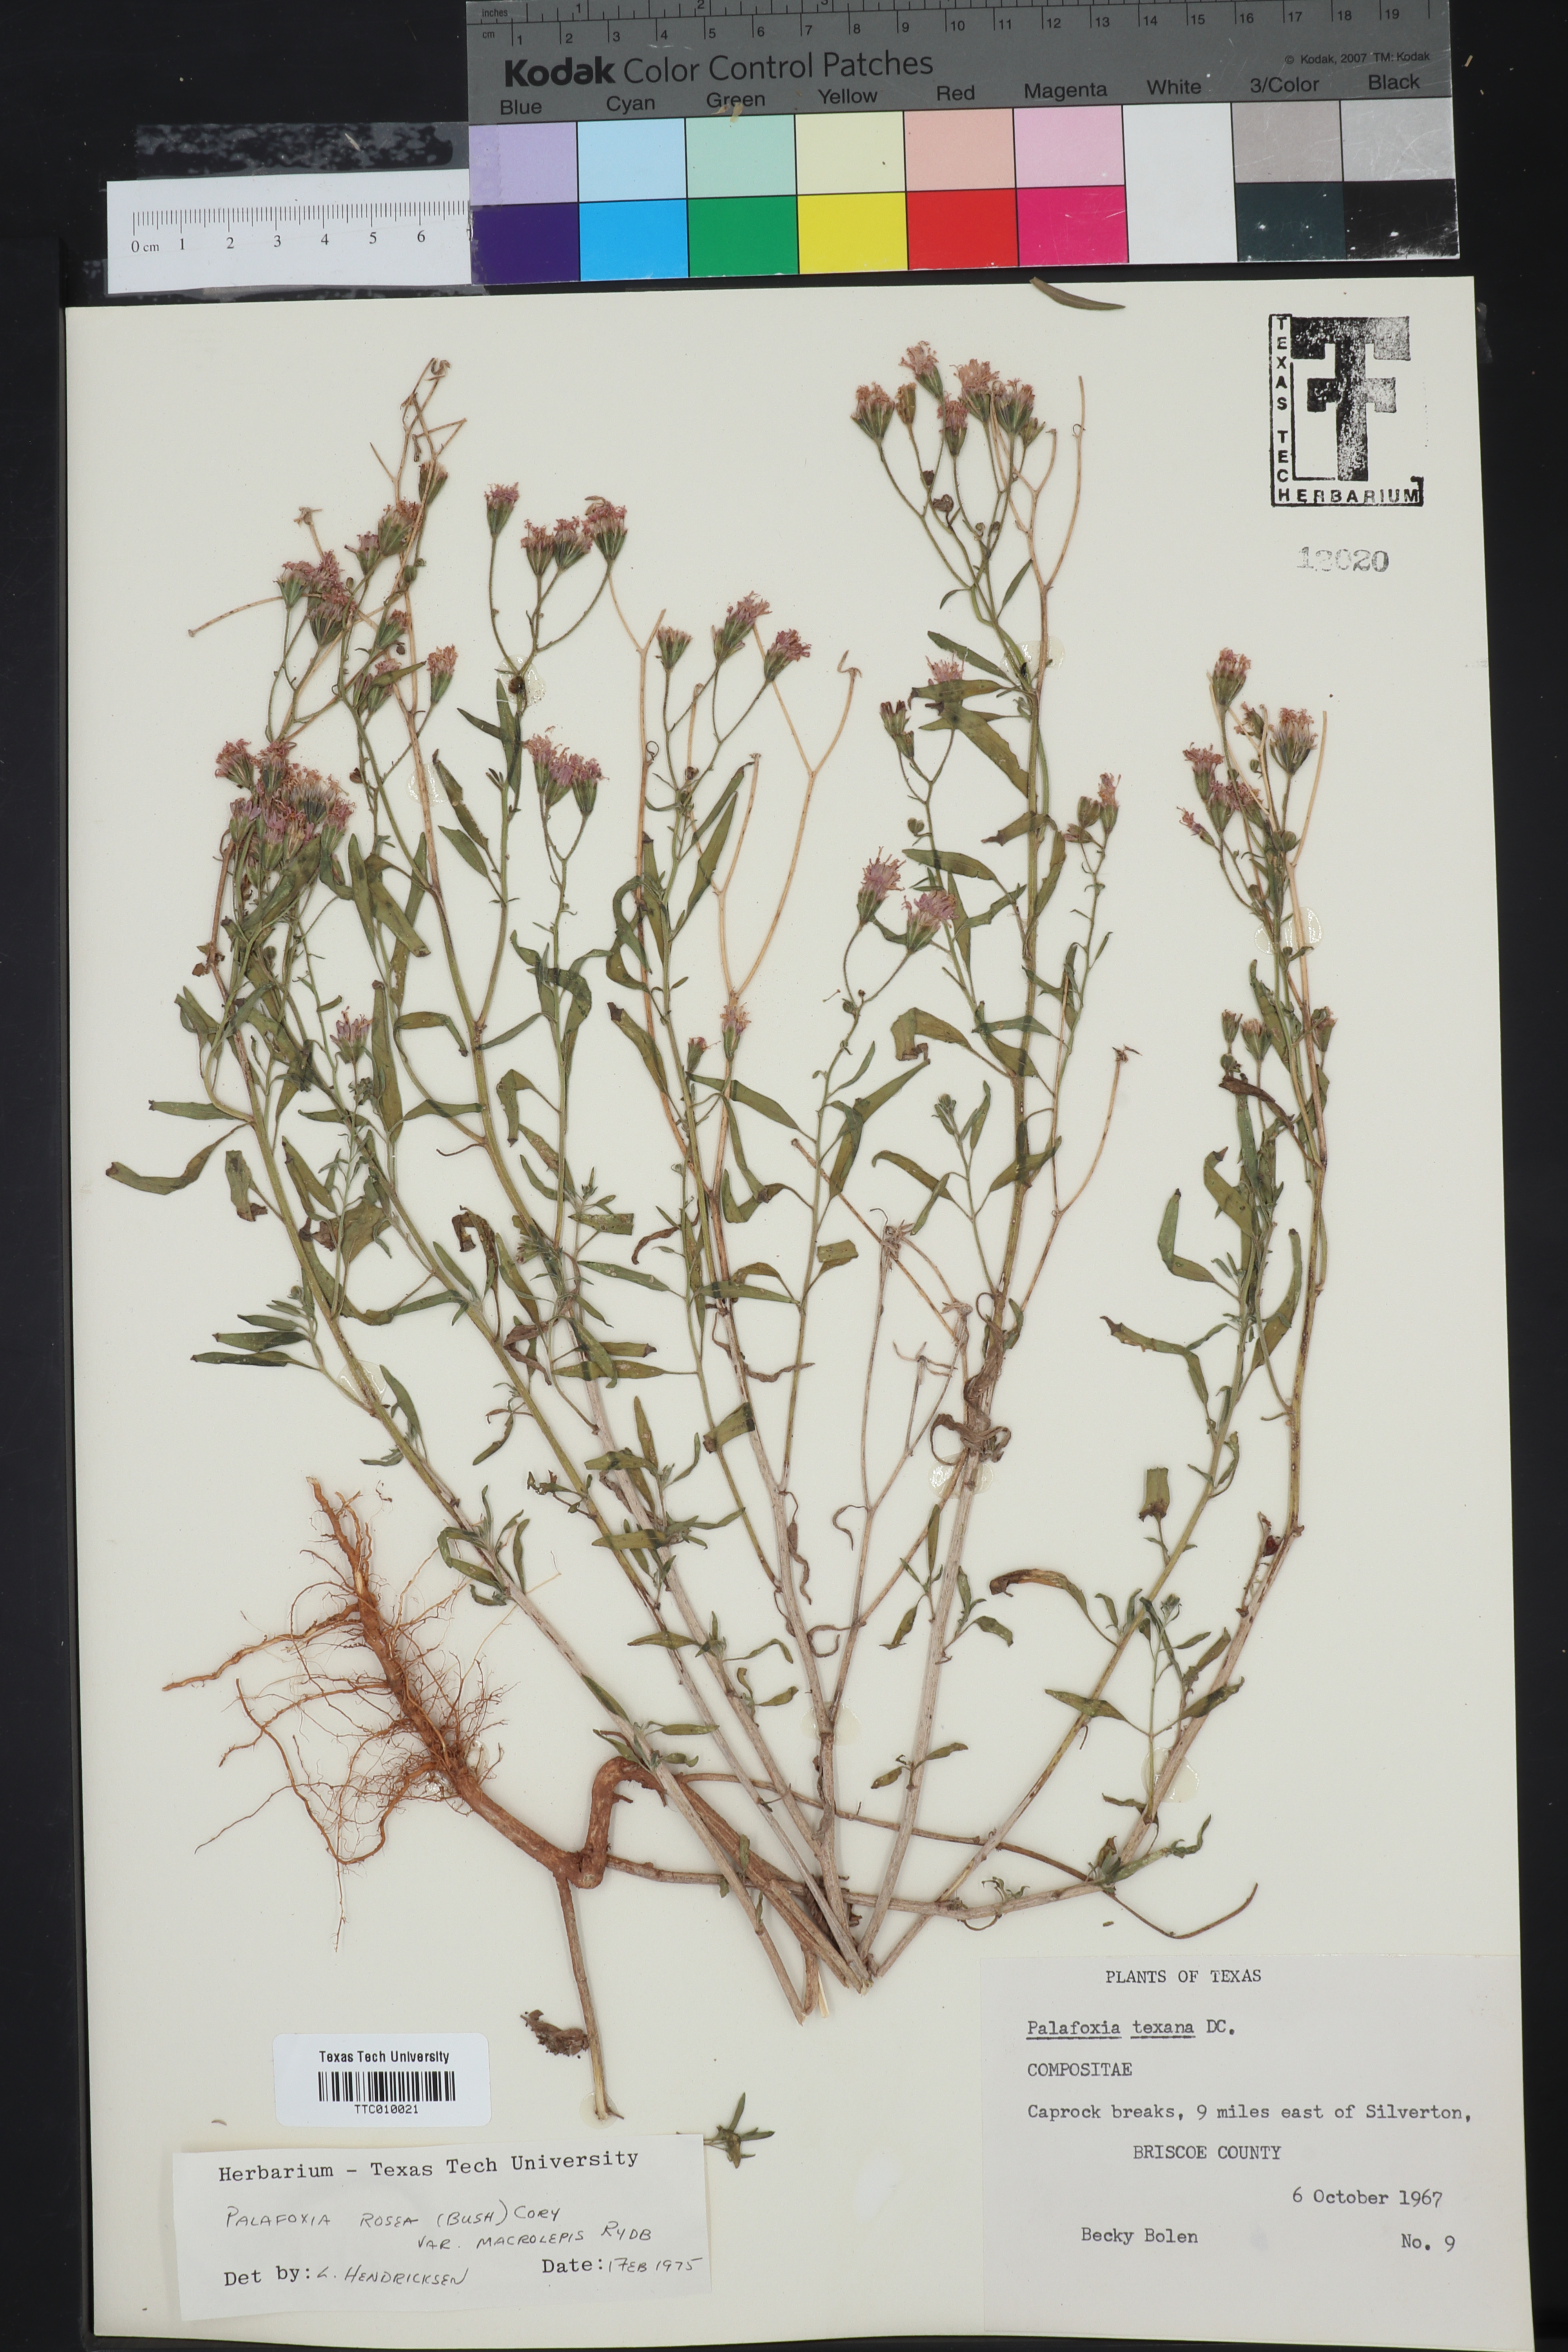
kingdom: Plantae
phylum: Tracheophyta
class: Magnoliopsida
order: Asterales
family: Asteraceae
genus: Palafoxia
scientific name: Palafoxia rosea
